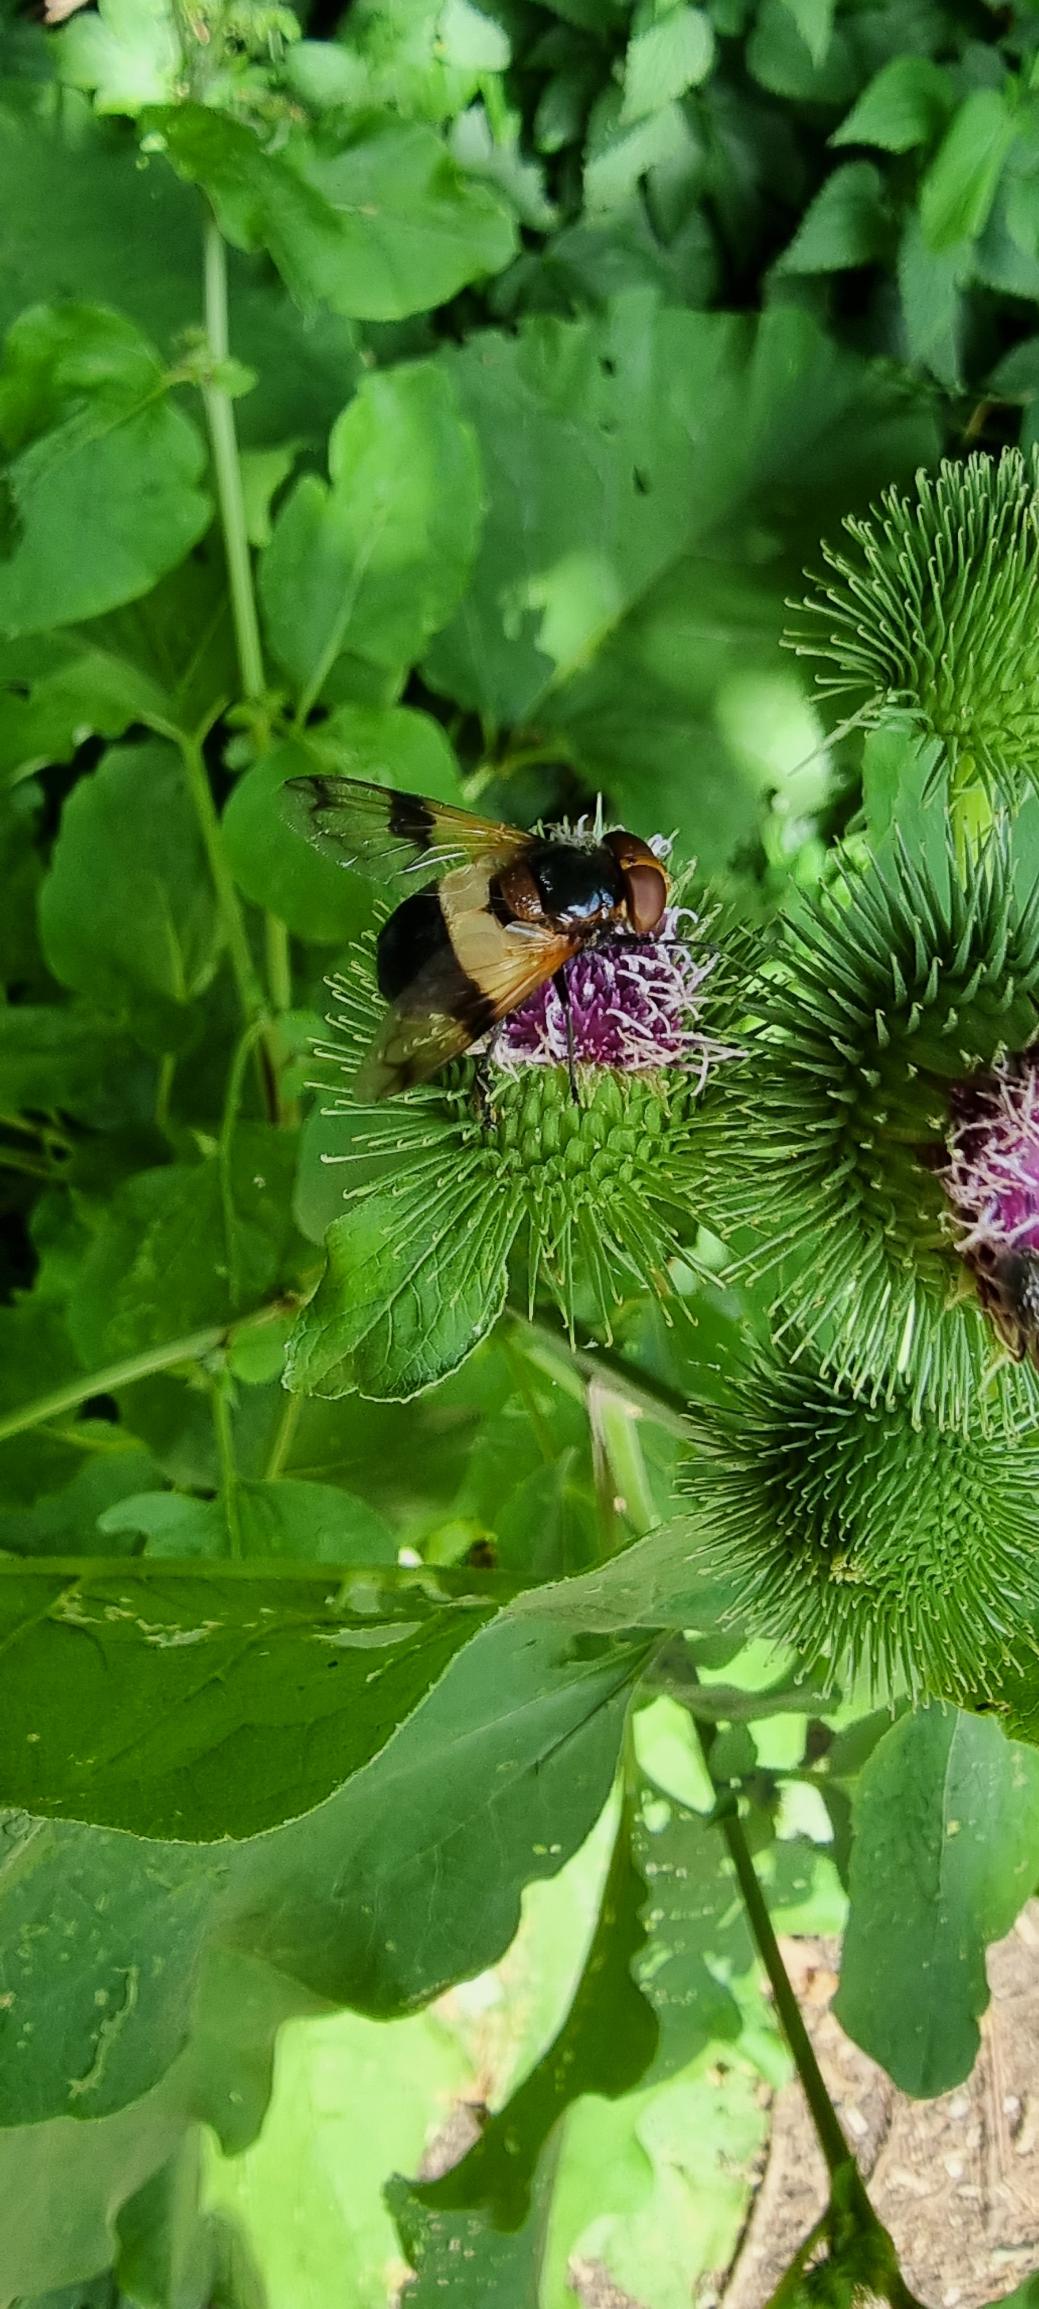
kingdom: Animalia
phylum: Arthropoda
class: Insecta
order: Diptera
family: Syrphidae
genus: Volucella
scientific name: Volucella pellucens
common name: Hvidbåndet humlesvirreflue
